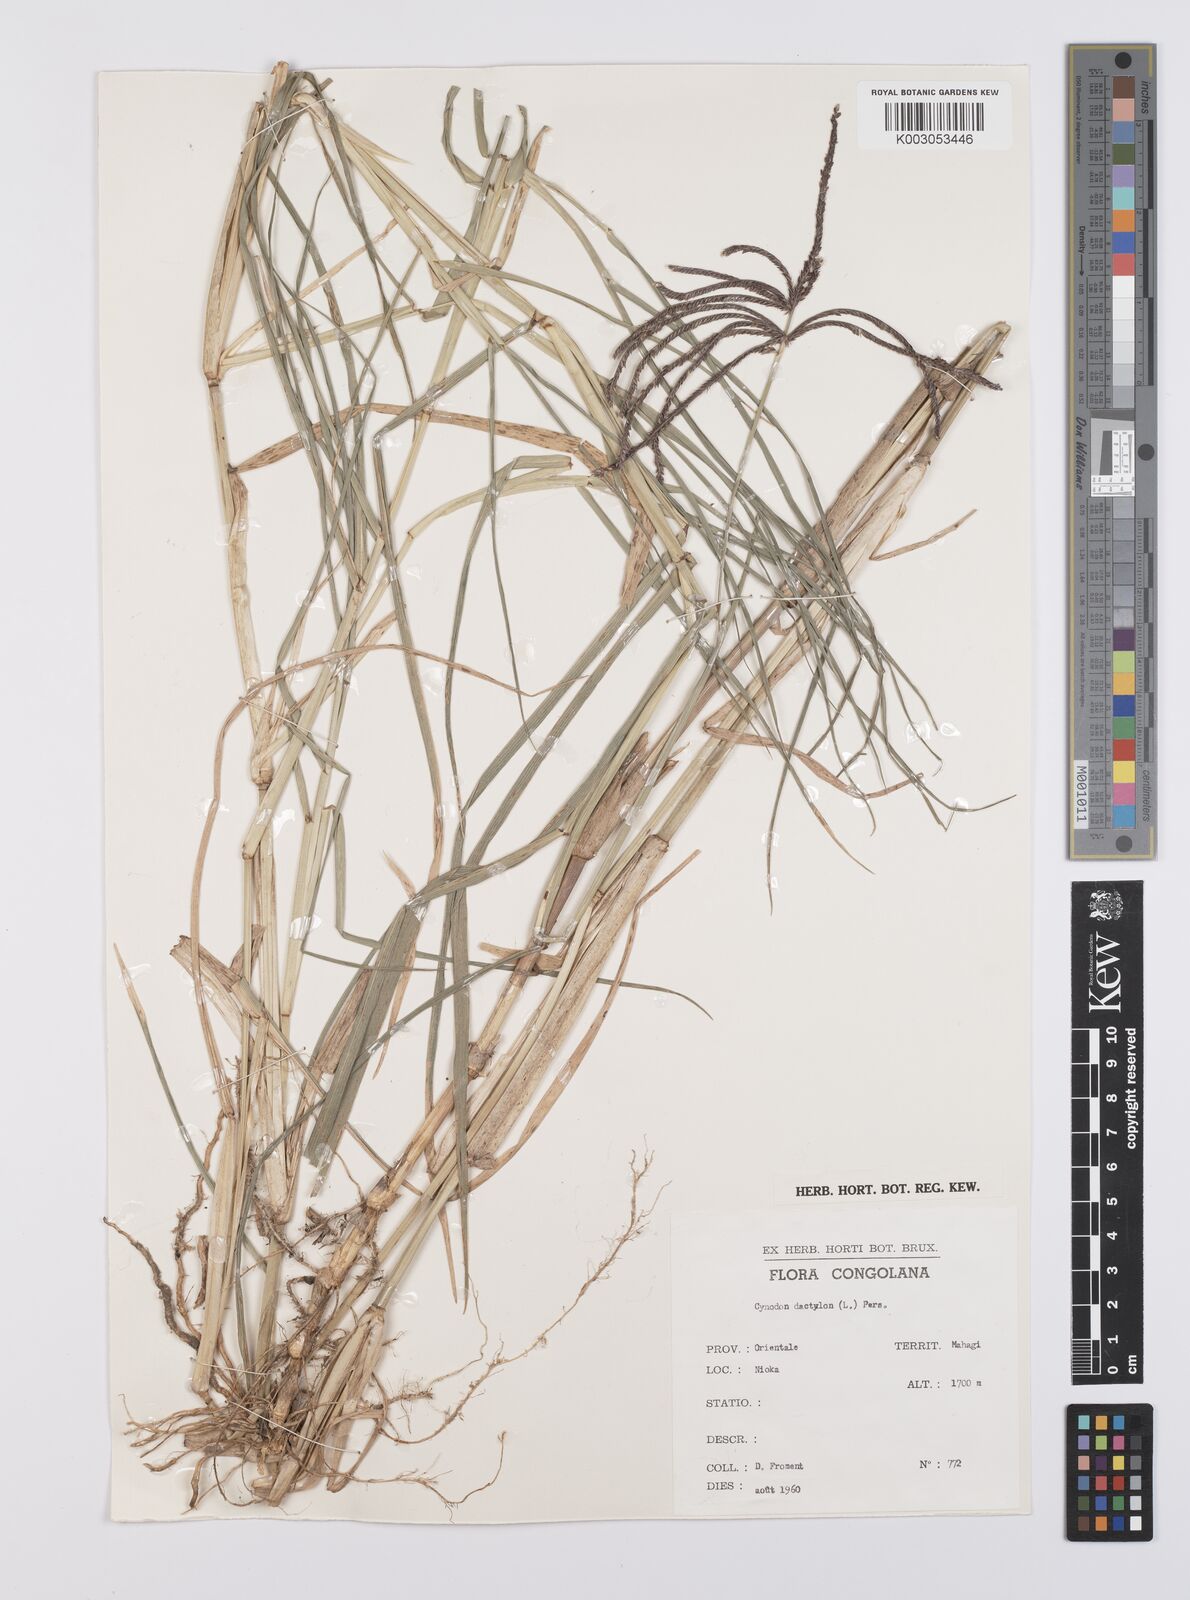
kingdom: Plantae
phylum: Tracheophyta
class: Liliopsida
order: Poales
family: Poaceae
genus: Cynodon
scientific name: Cynodon aethiopicus
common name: Ethiopian dogstooth grass
